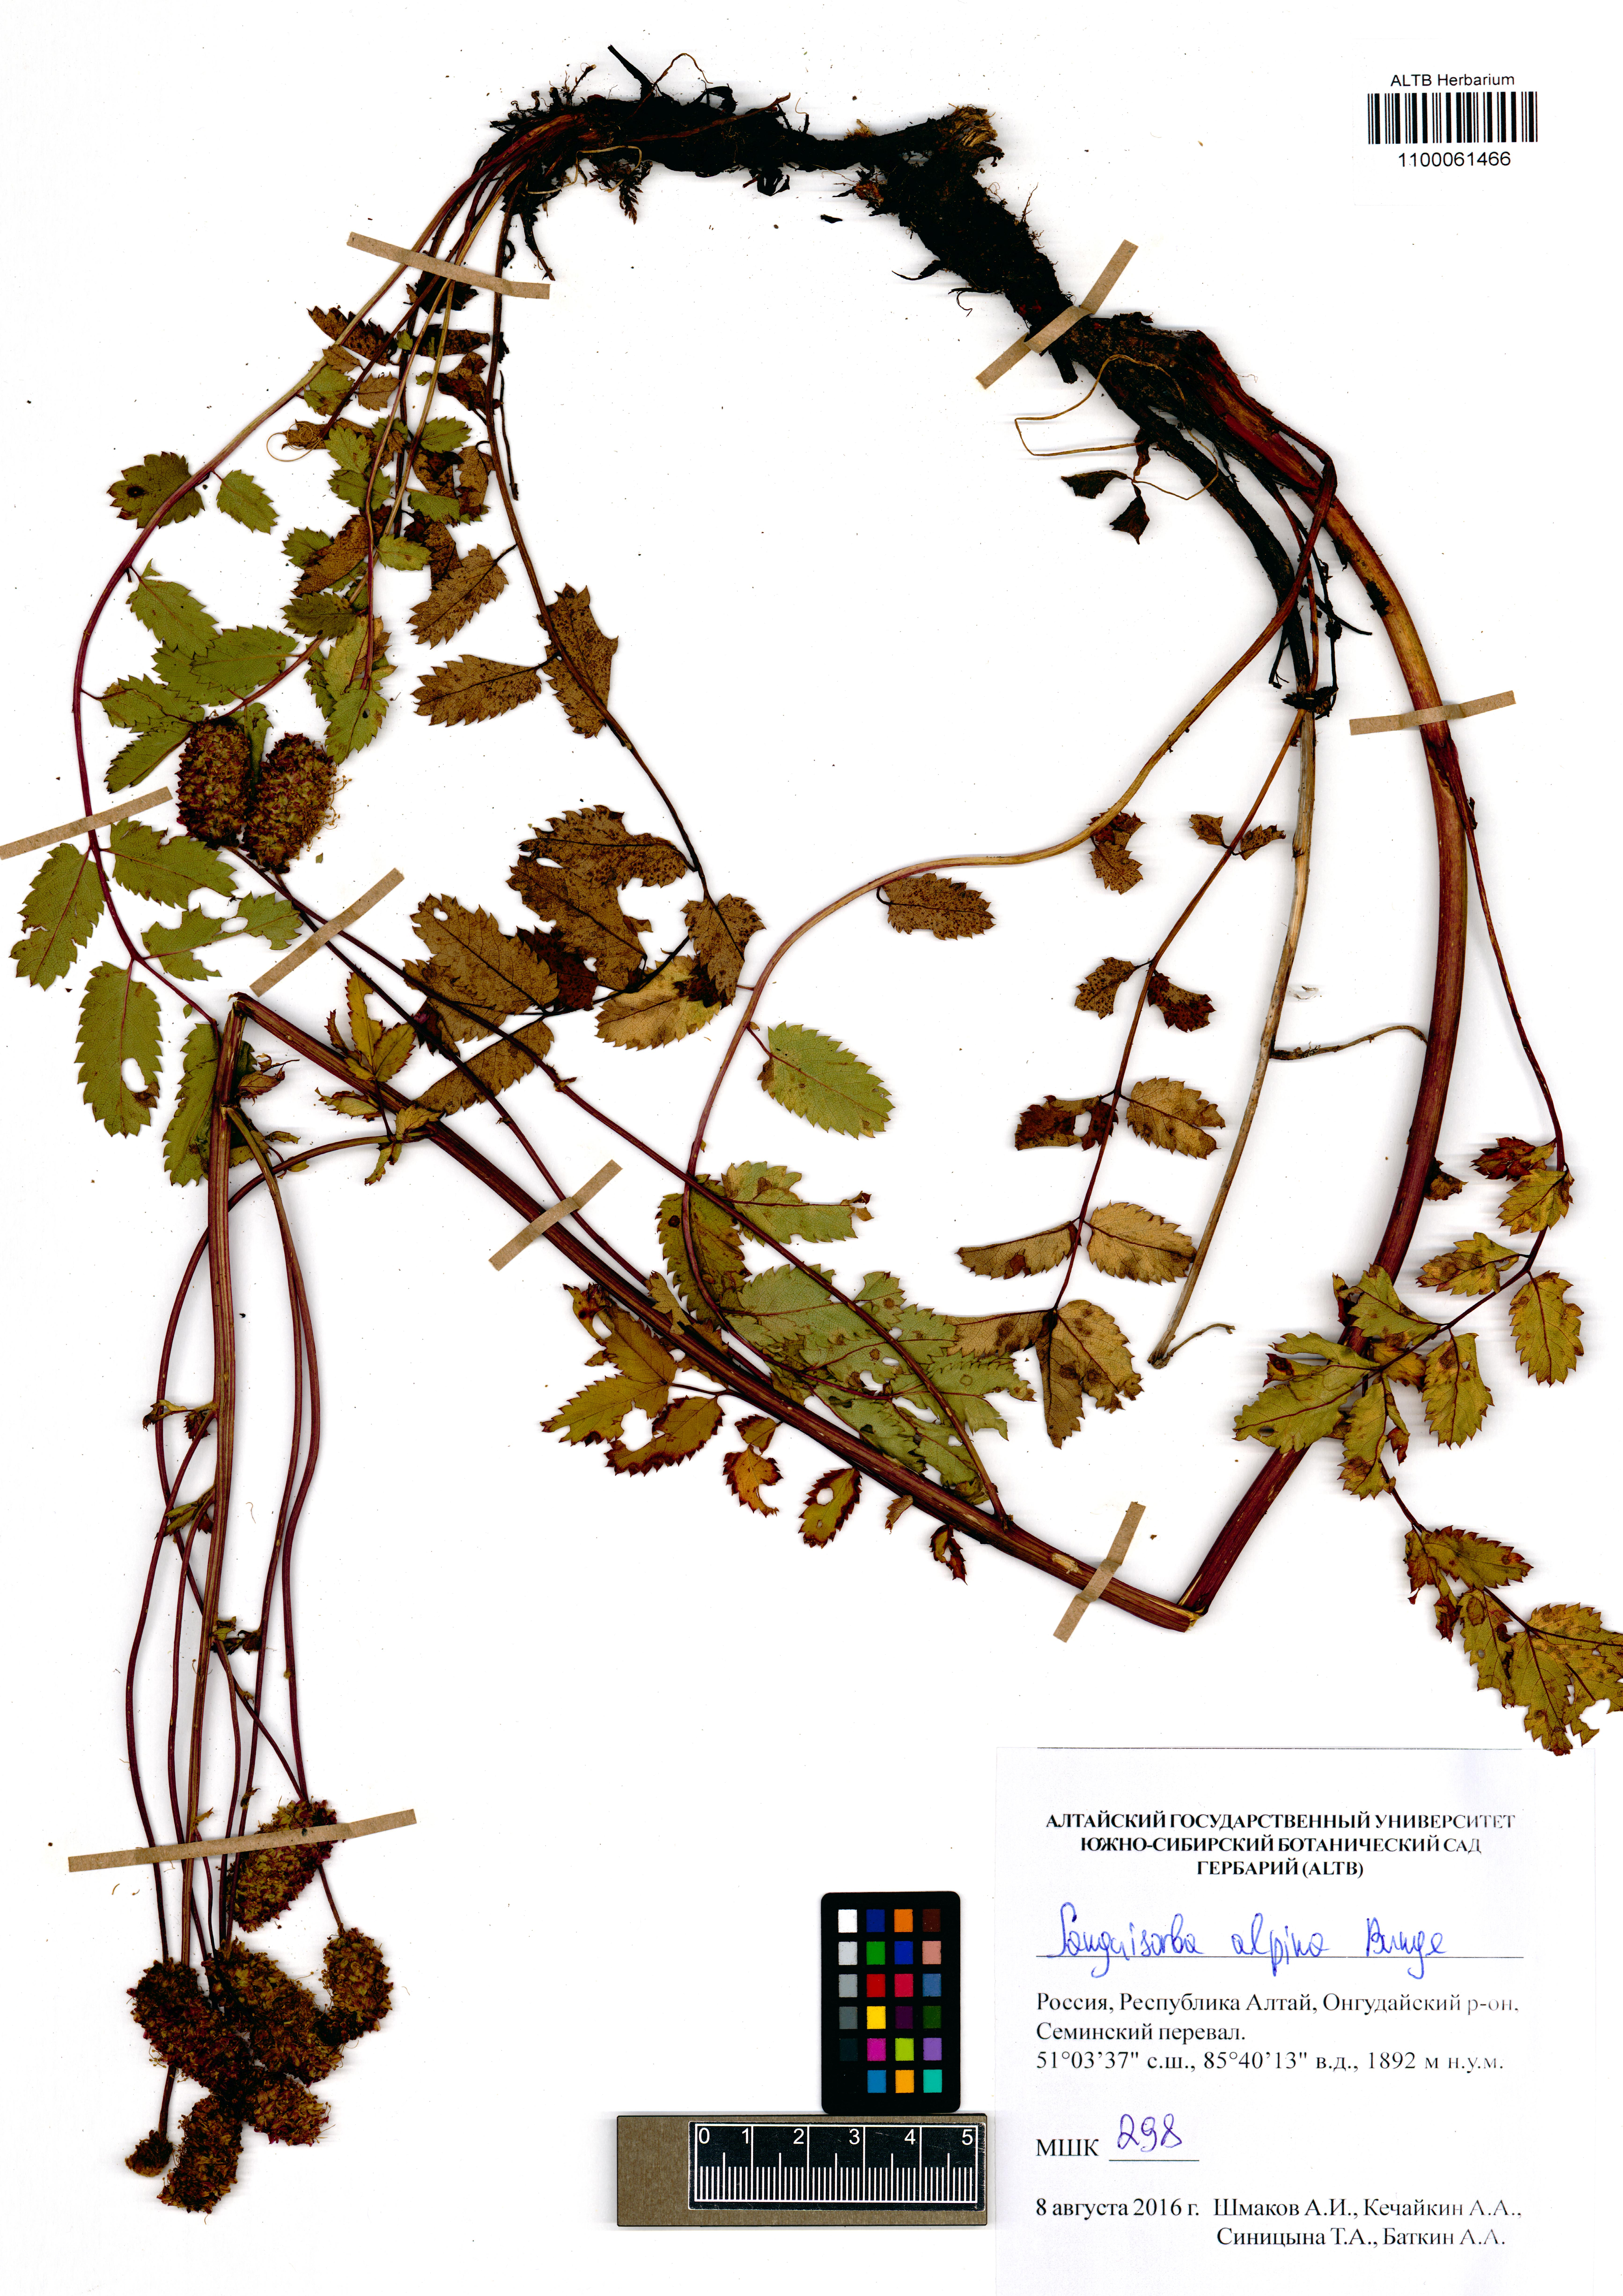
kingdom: Plantae
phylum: Tracheophyta
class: Magnoliopsida
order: Rosales
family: Rosaceae
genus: Sanguisorba
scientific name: Sanguisorba alpina
